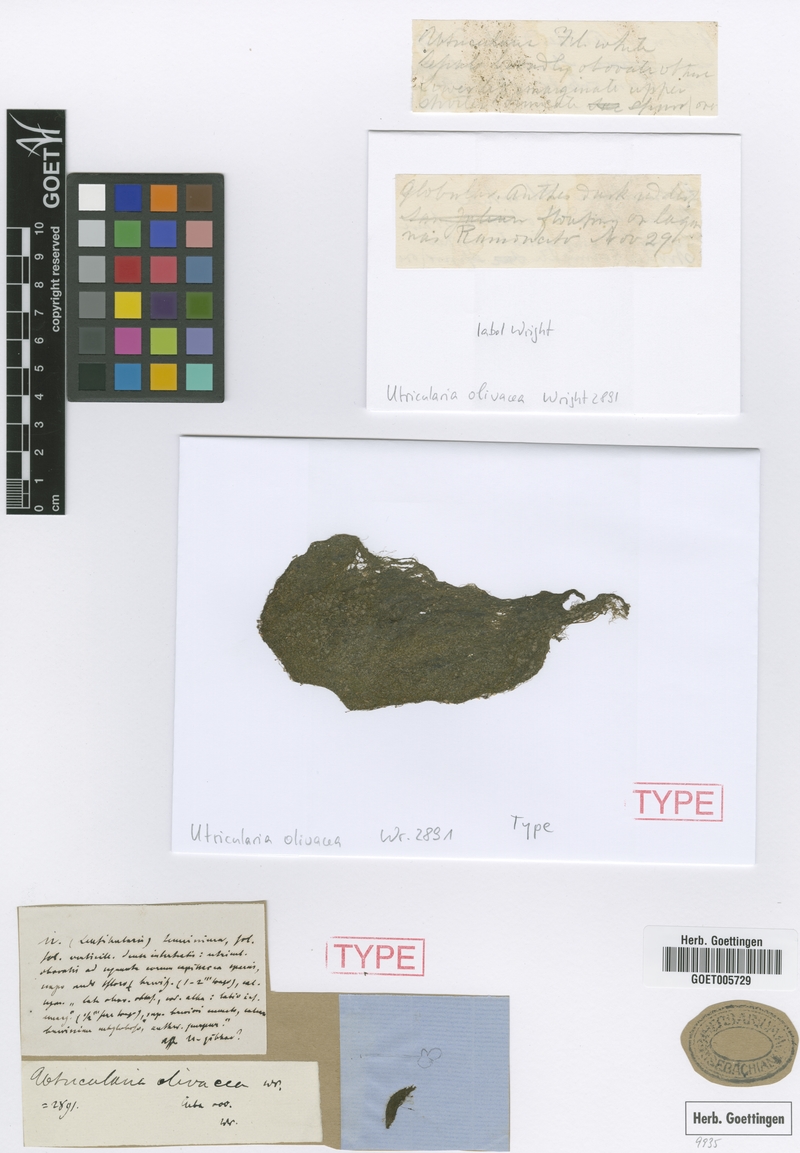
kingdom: Plantae
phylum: Tracheophyta
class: Magnoliopsida
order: Lamiales
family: Lentibulariaceae
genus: Utricularia
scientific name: Utricularia olivacea
